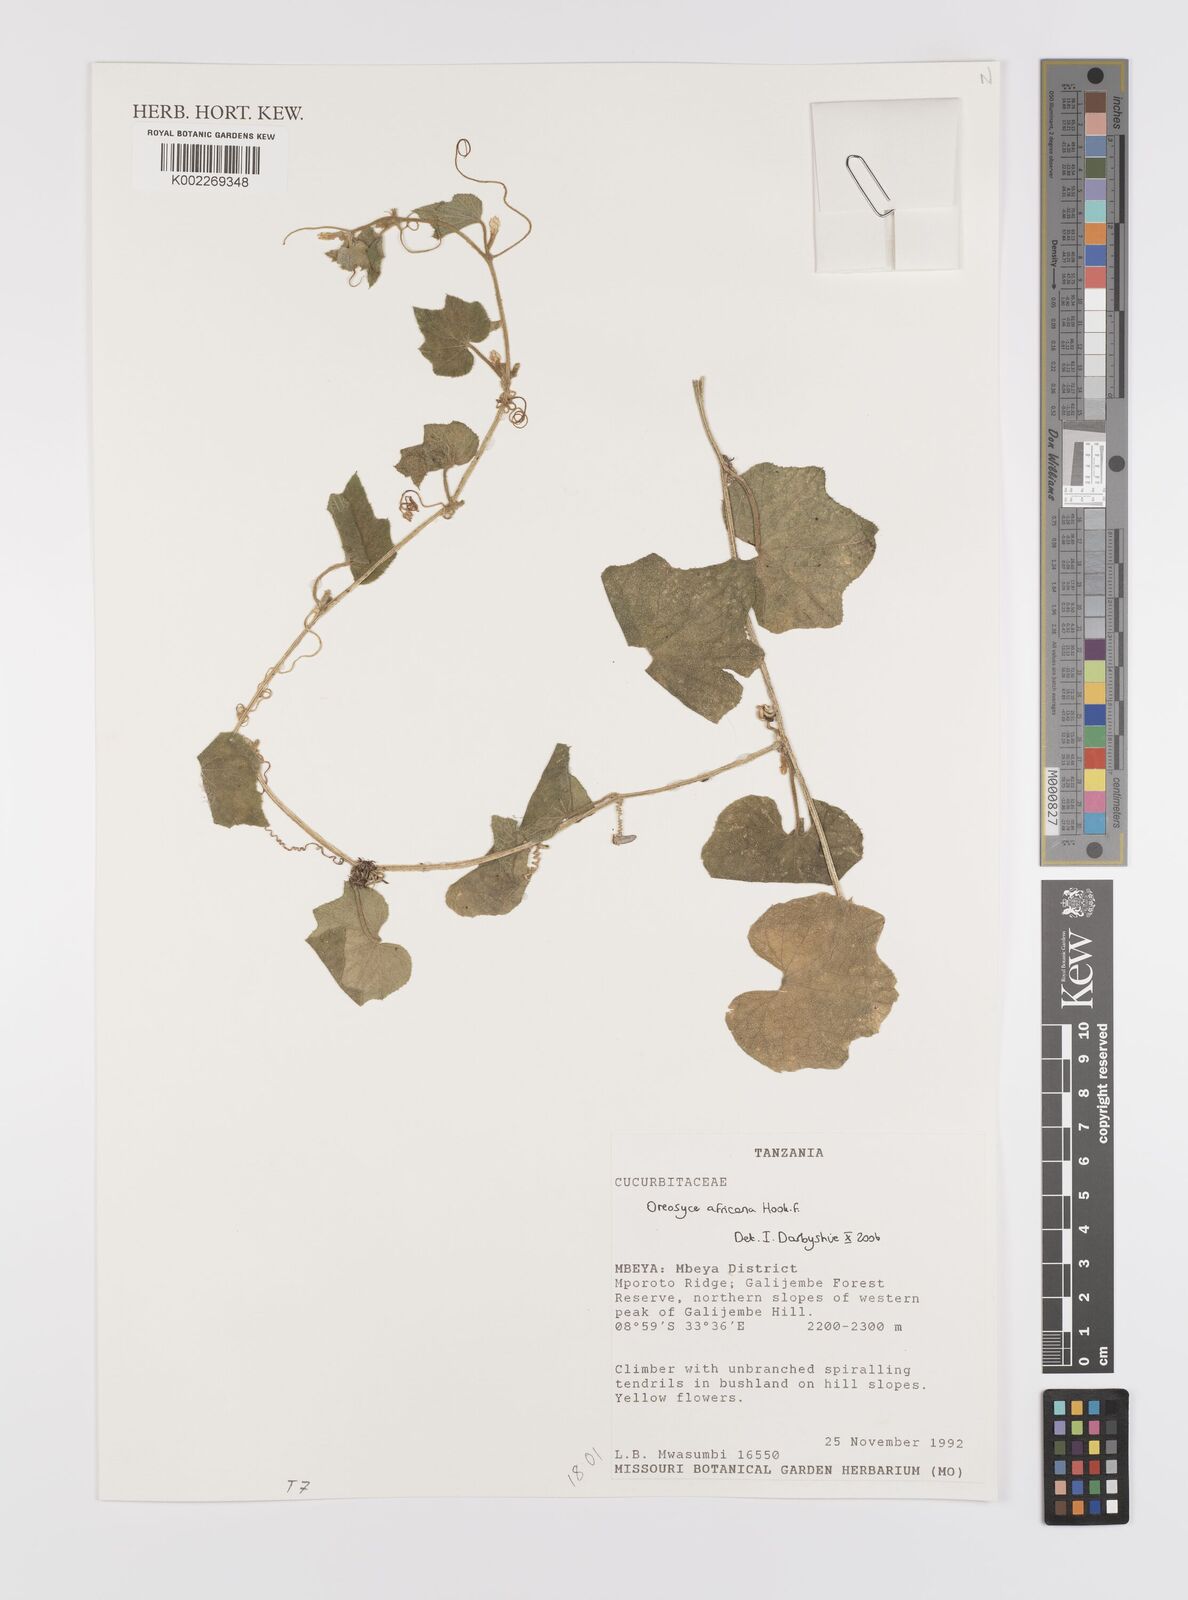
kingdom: Plantae
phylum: Tracheophyta
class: Magnoliopsida
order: Cucurbitales
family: Cucurbitaceae
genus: Cucumis
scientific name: Cucumis oreosyce
